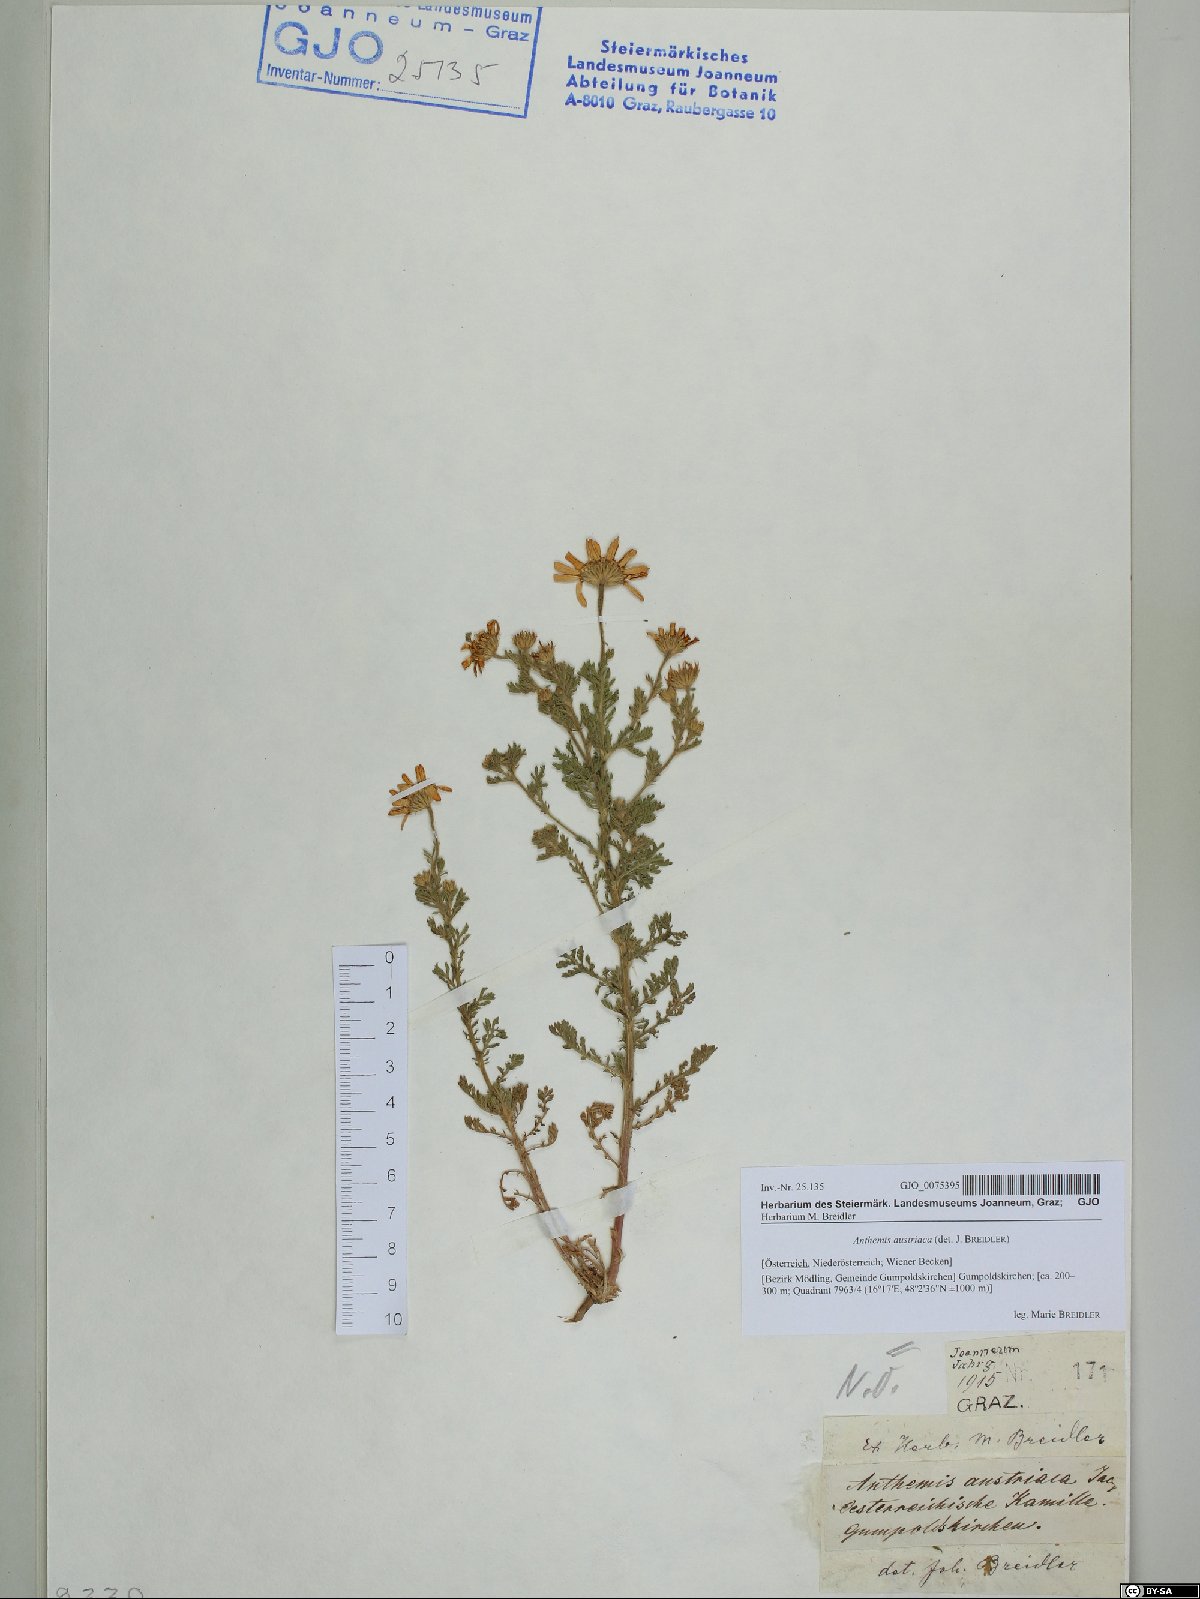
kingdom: Plantae
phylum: Tracheophyta
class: Magnoliopsida
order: Asterales
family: Asteraceae
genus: Cota
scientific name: Cota austriaca
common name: Austrian chamomile
